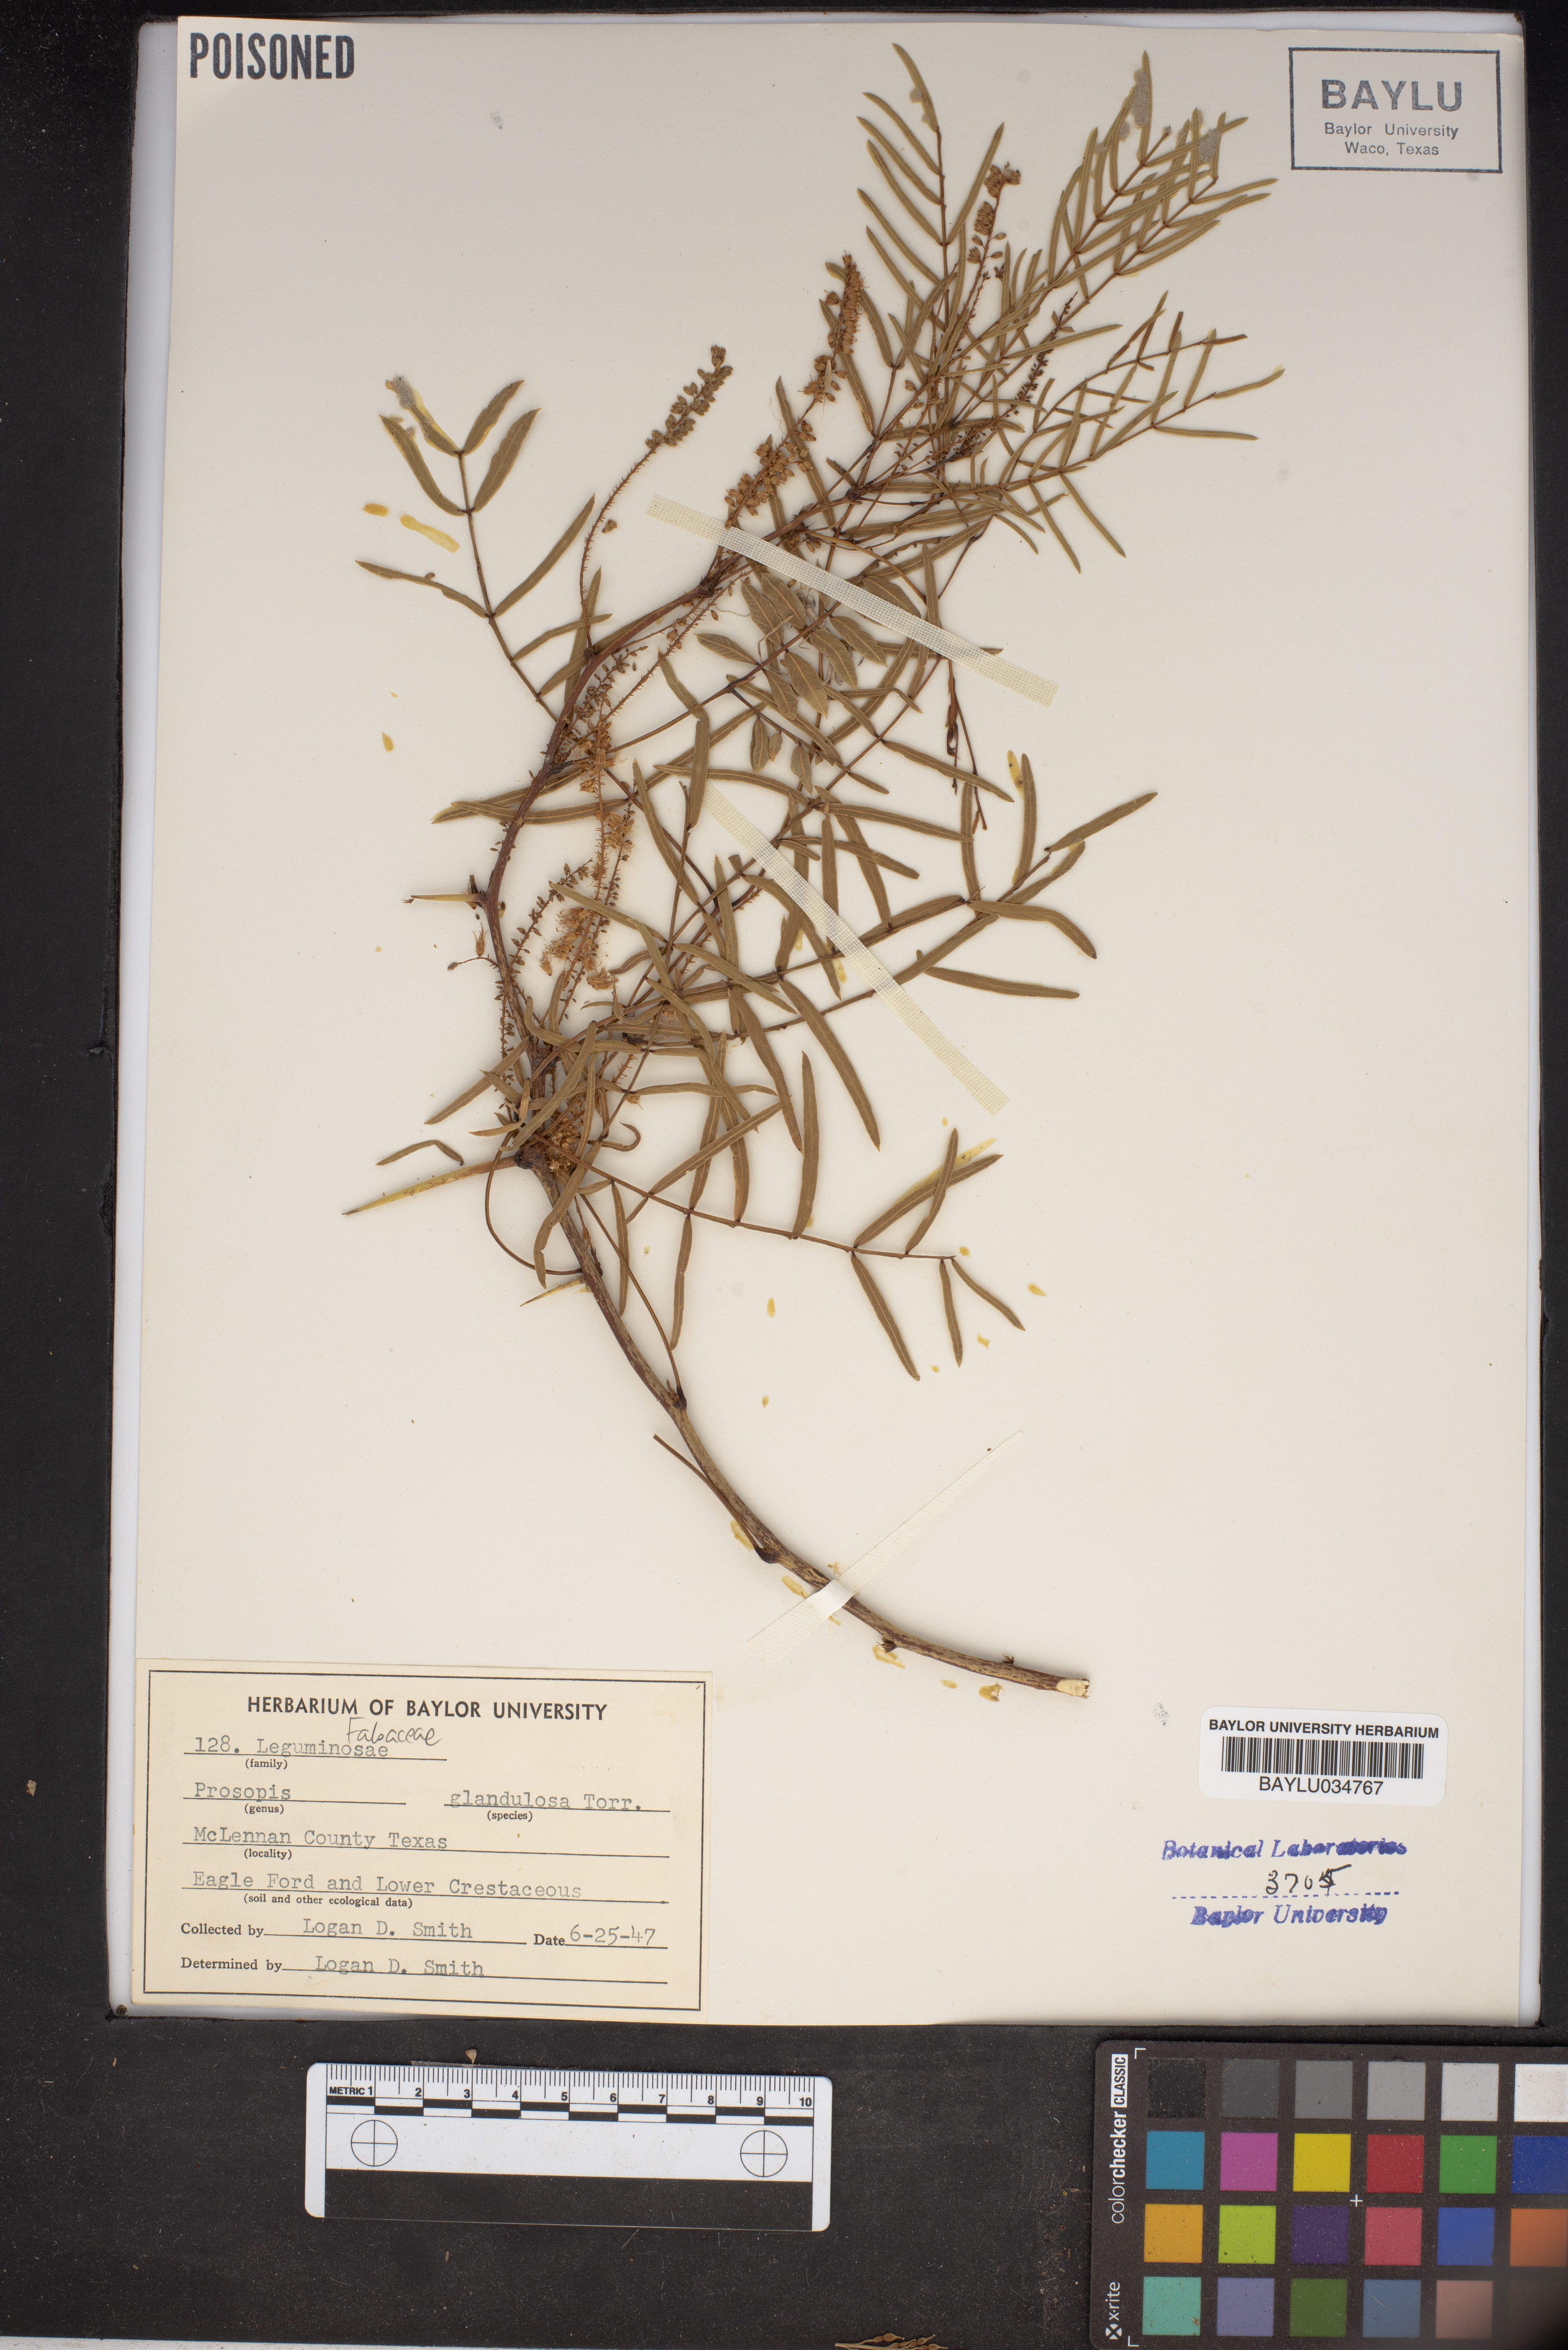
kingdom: Plantae
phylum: Tracheophyta
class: Magnoliopsida
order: Fabales
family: Fabaceae
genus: Prosopis
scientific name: Prosopis glandulosa
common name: Honey mesquite
